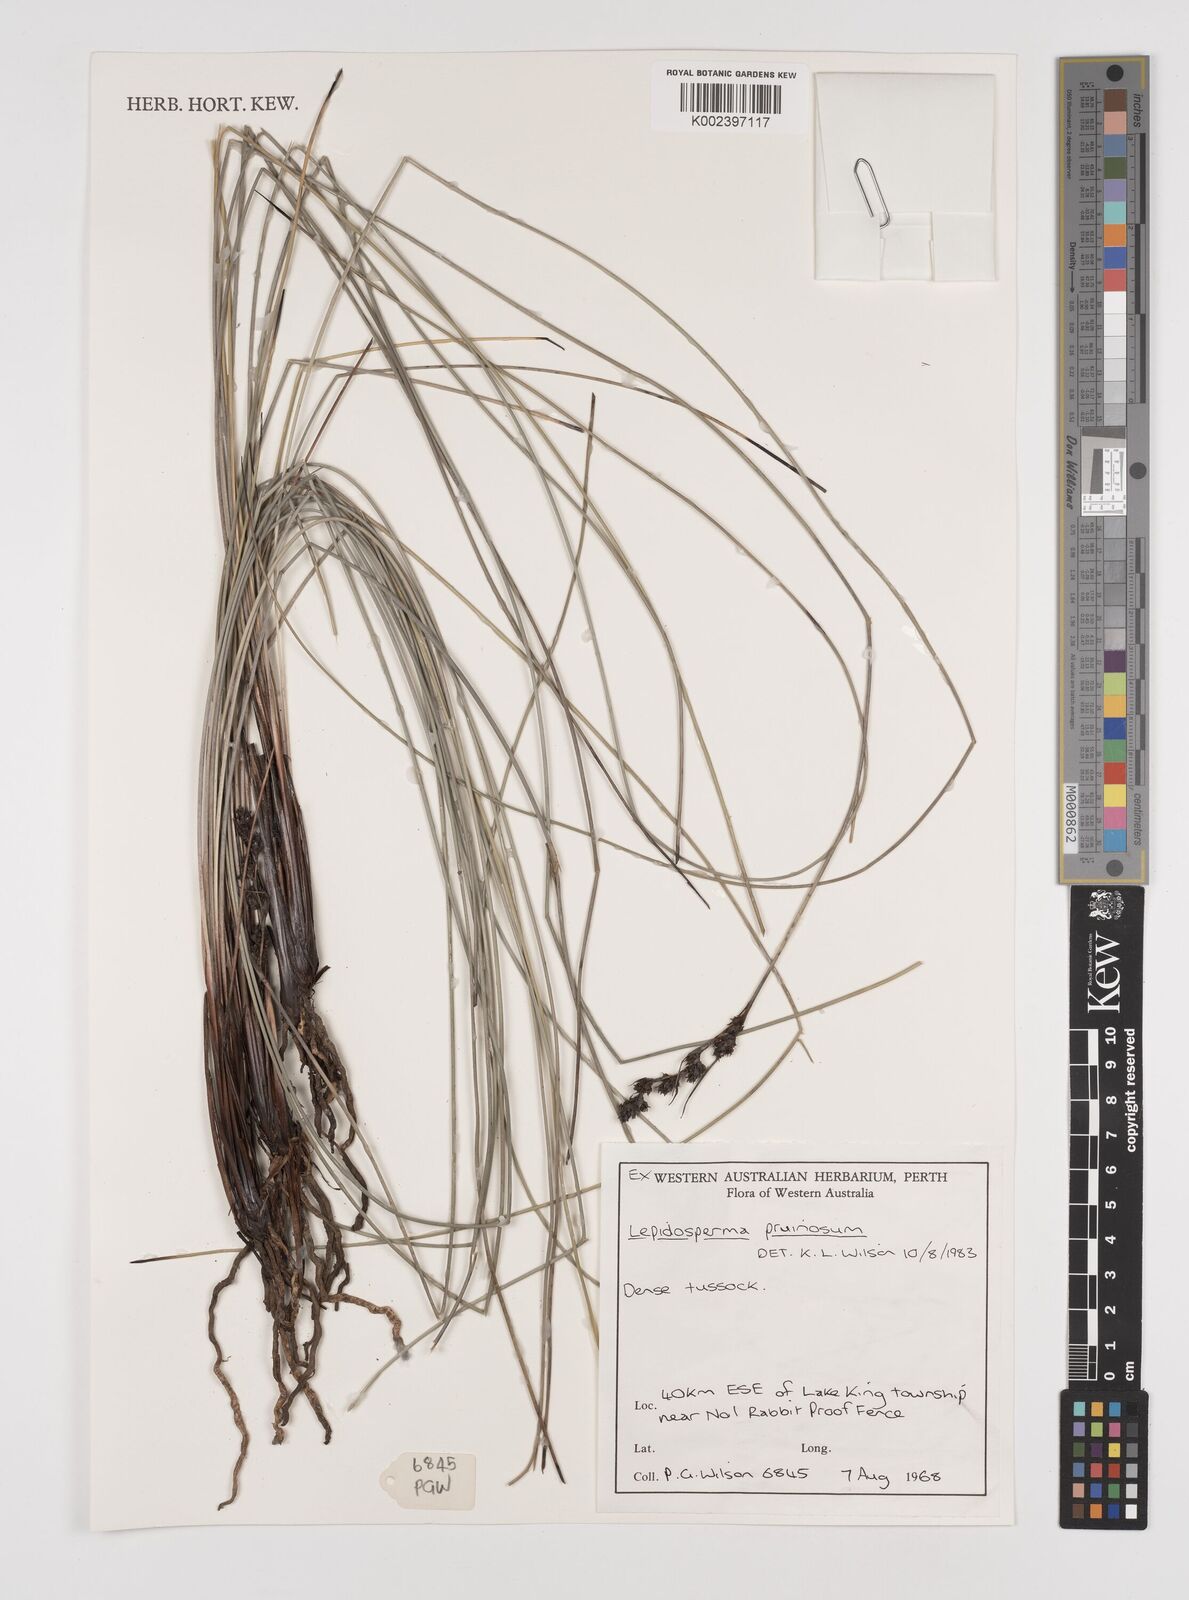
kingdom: Plantae
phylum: Tracheophyta
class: Liliopsida
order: Poales
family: Cyperaceae
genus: Lepidosperma
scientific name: Lepidosperma pruinosum
